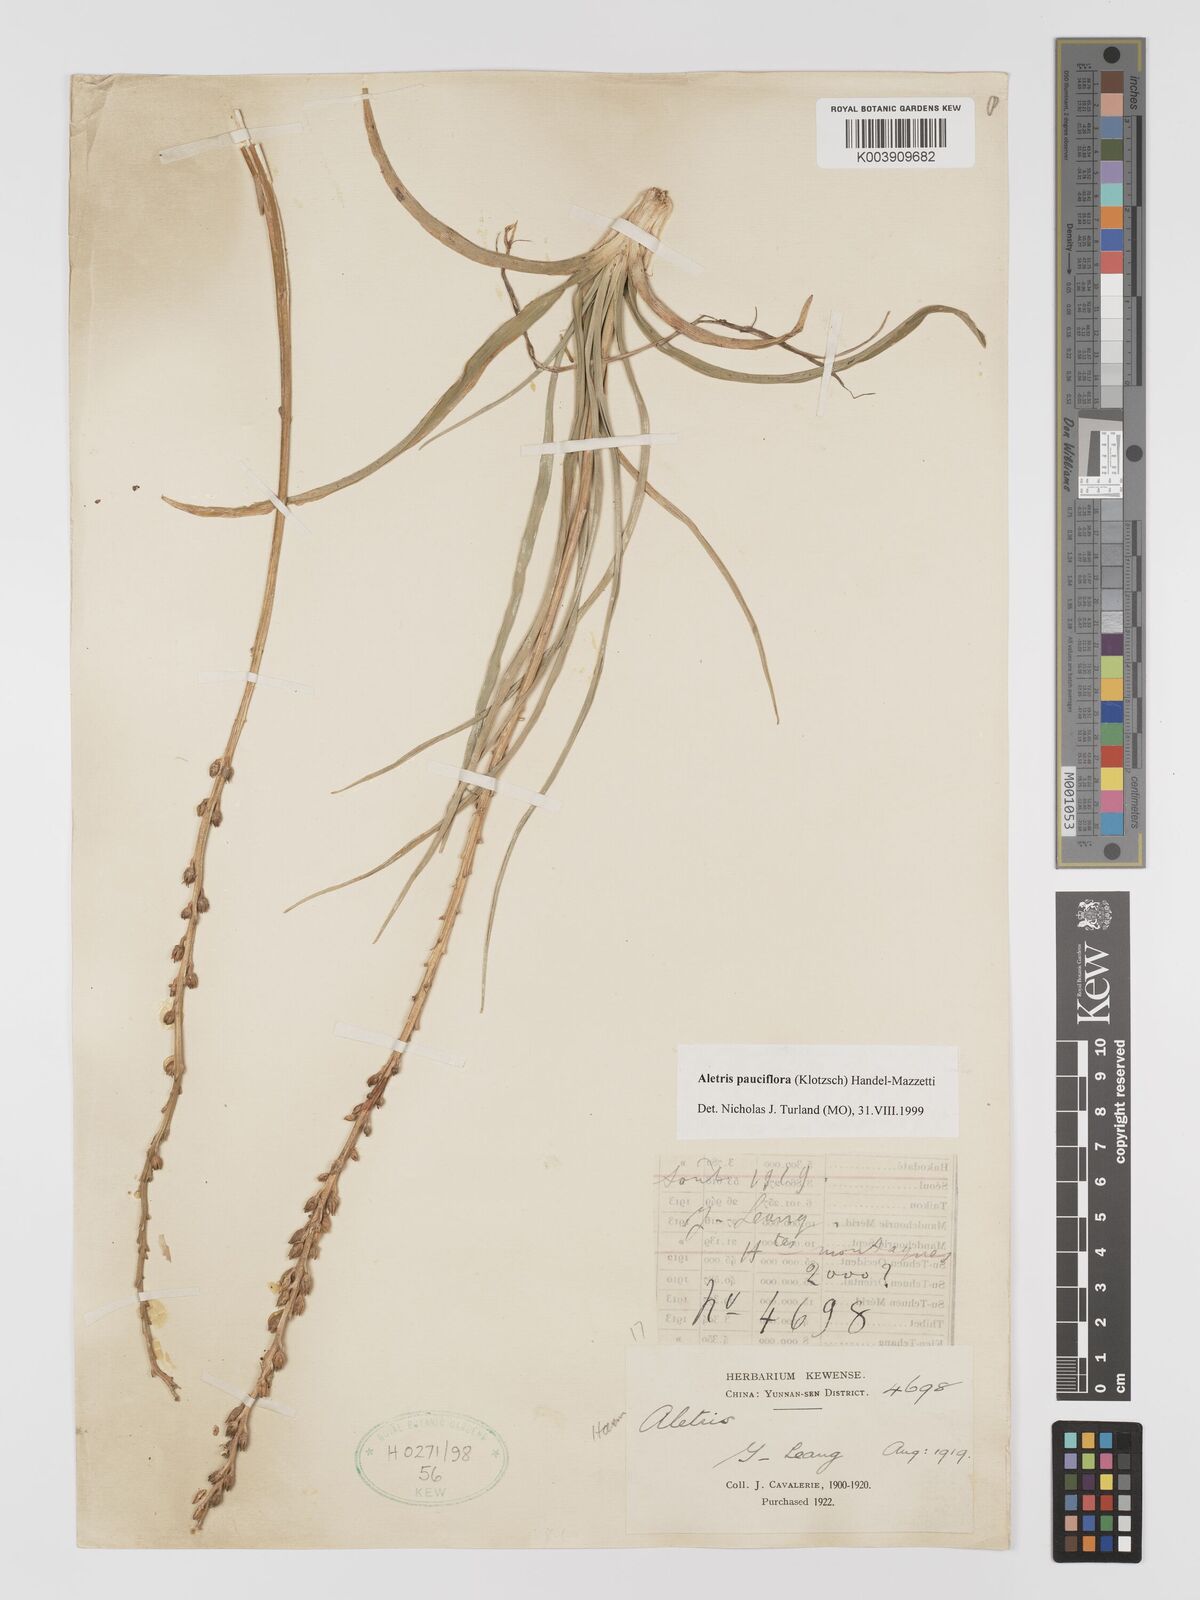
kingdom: Plantae
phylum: Tracheophyta
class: Liliopsida
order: Dioscoreales
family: Nartheciaceae
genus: Aletris
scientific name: Aletris pauciflora
